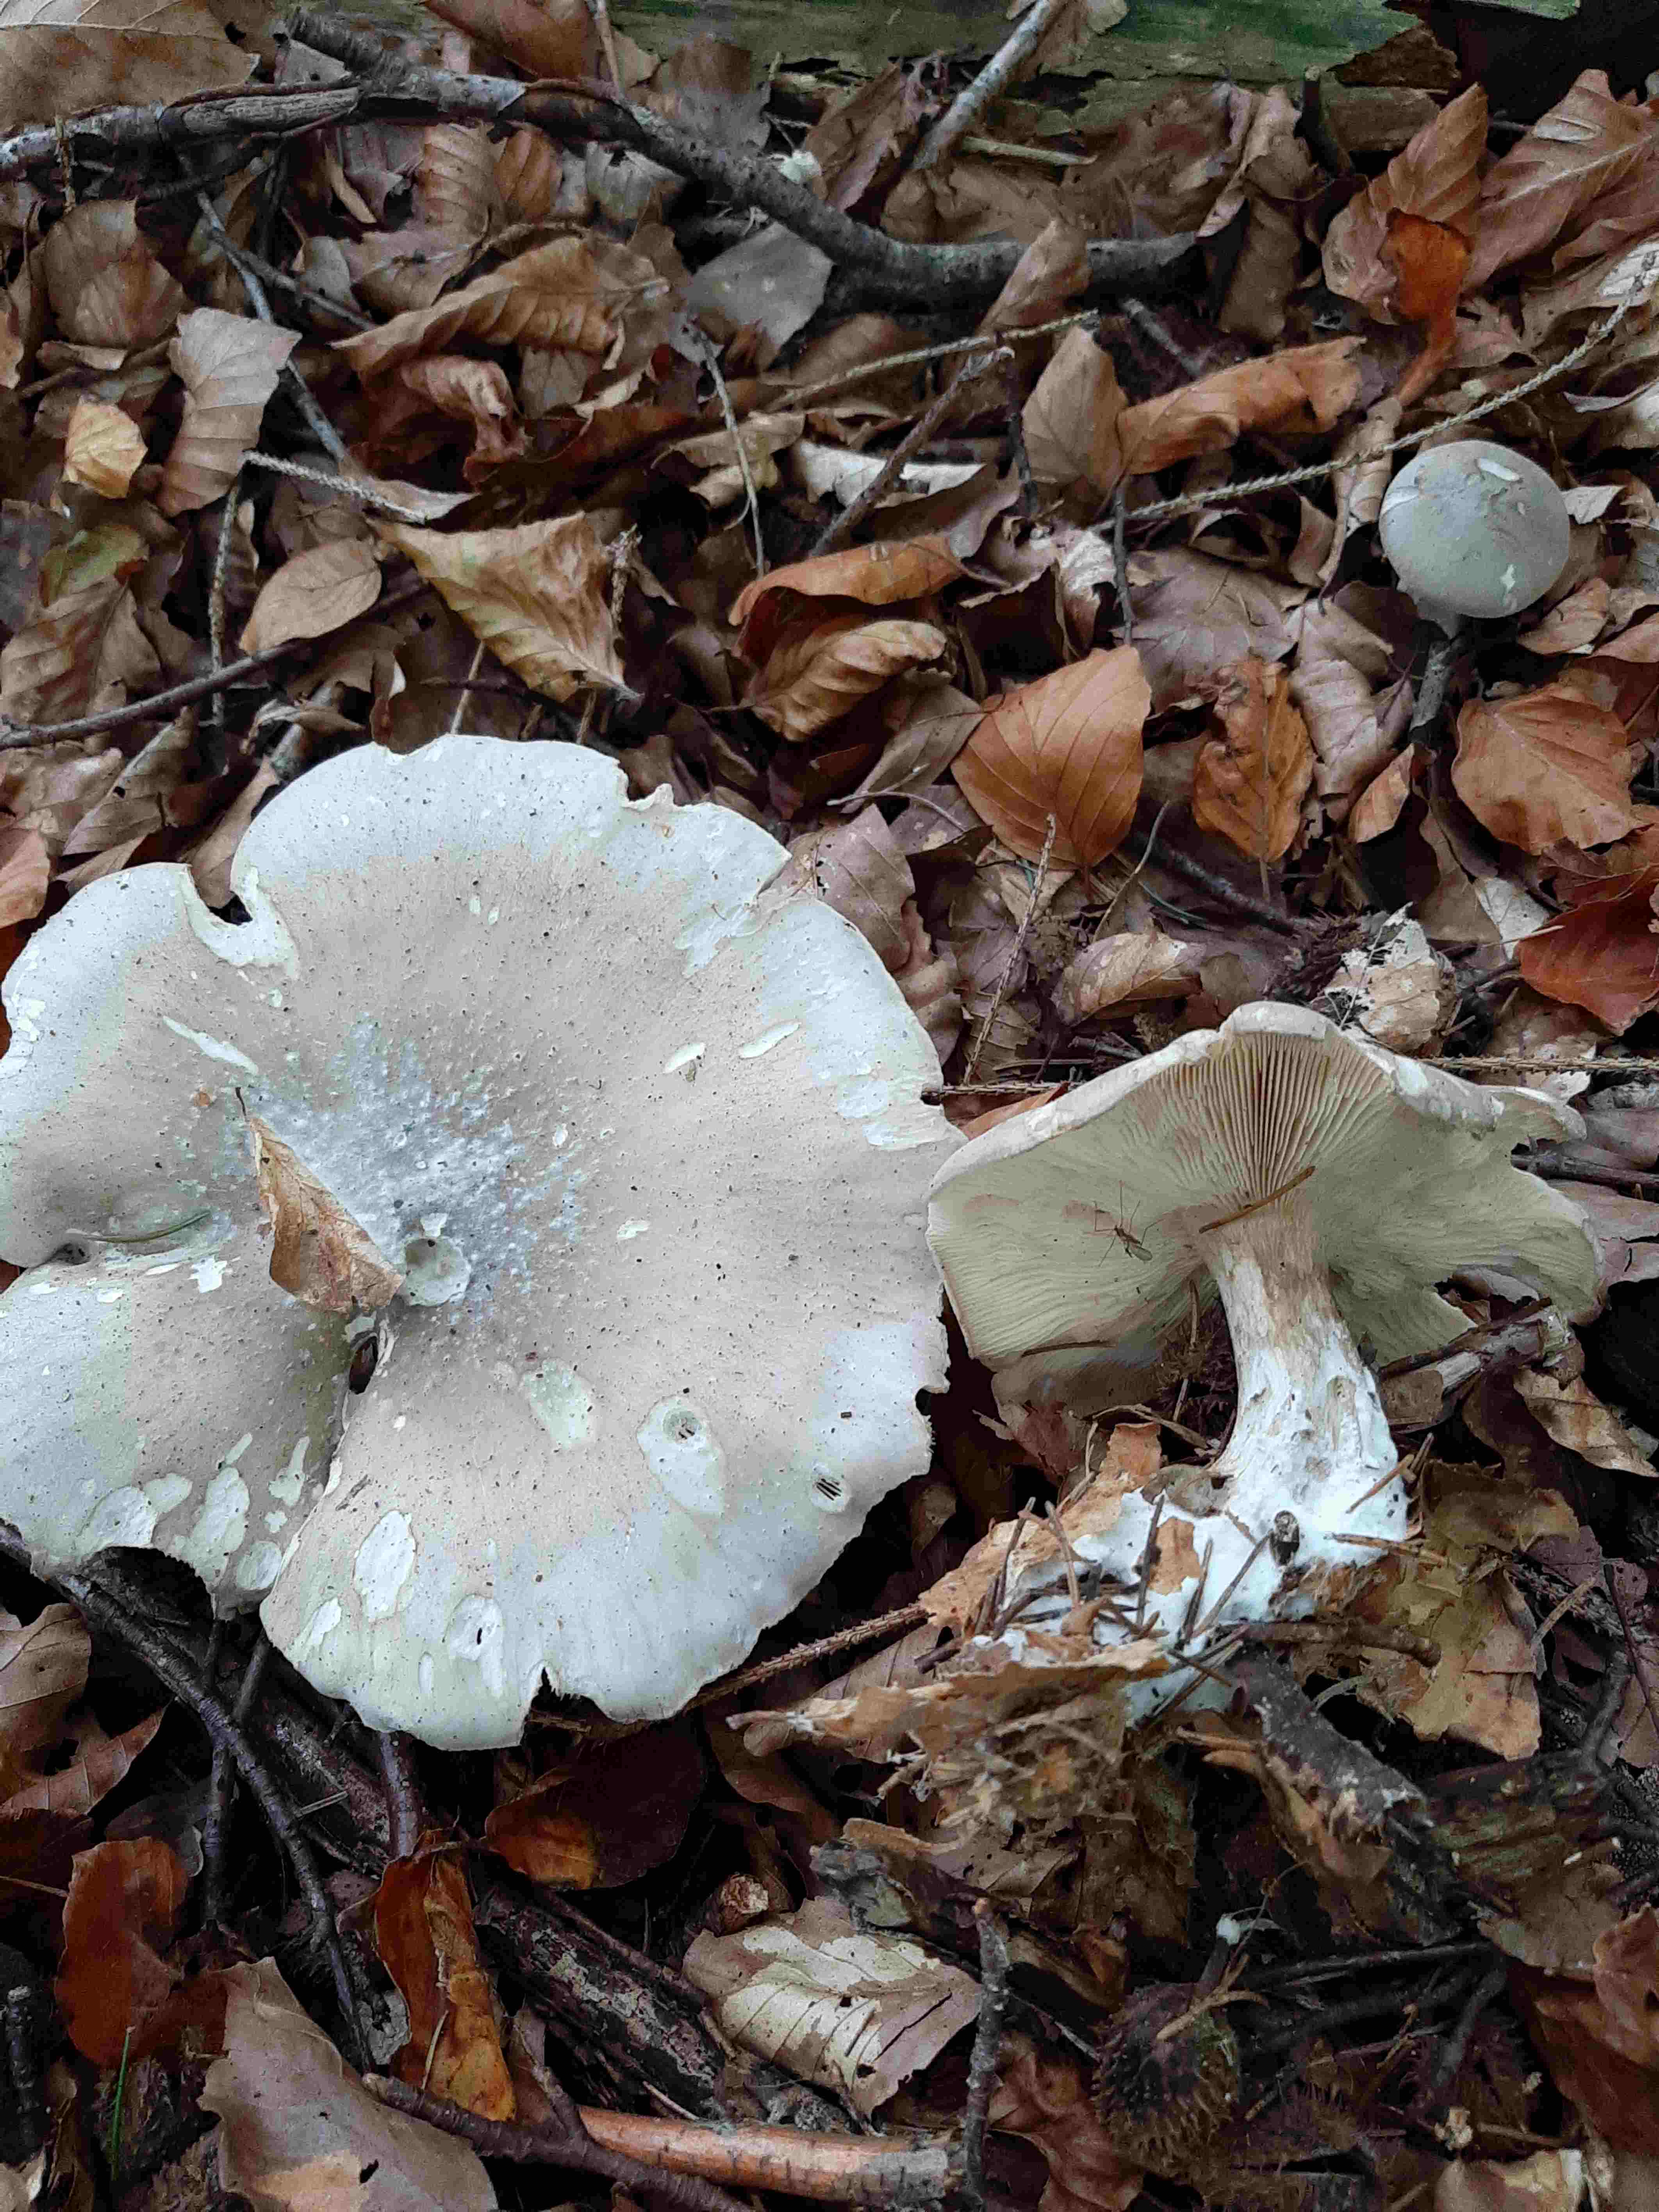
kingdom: Fungi
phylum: Basidiomycota
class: Agaricomycetes
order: Agaricales
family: Tricholomataceae
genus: Clitocybe
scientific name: Clitocybe nebularis
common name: tåge-tragthat
